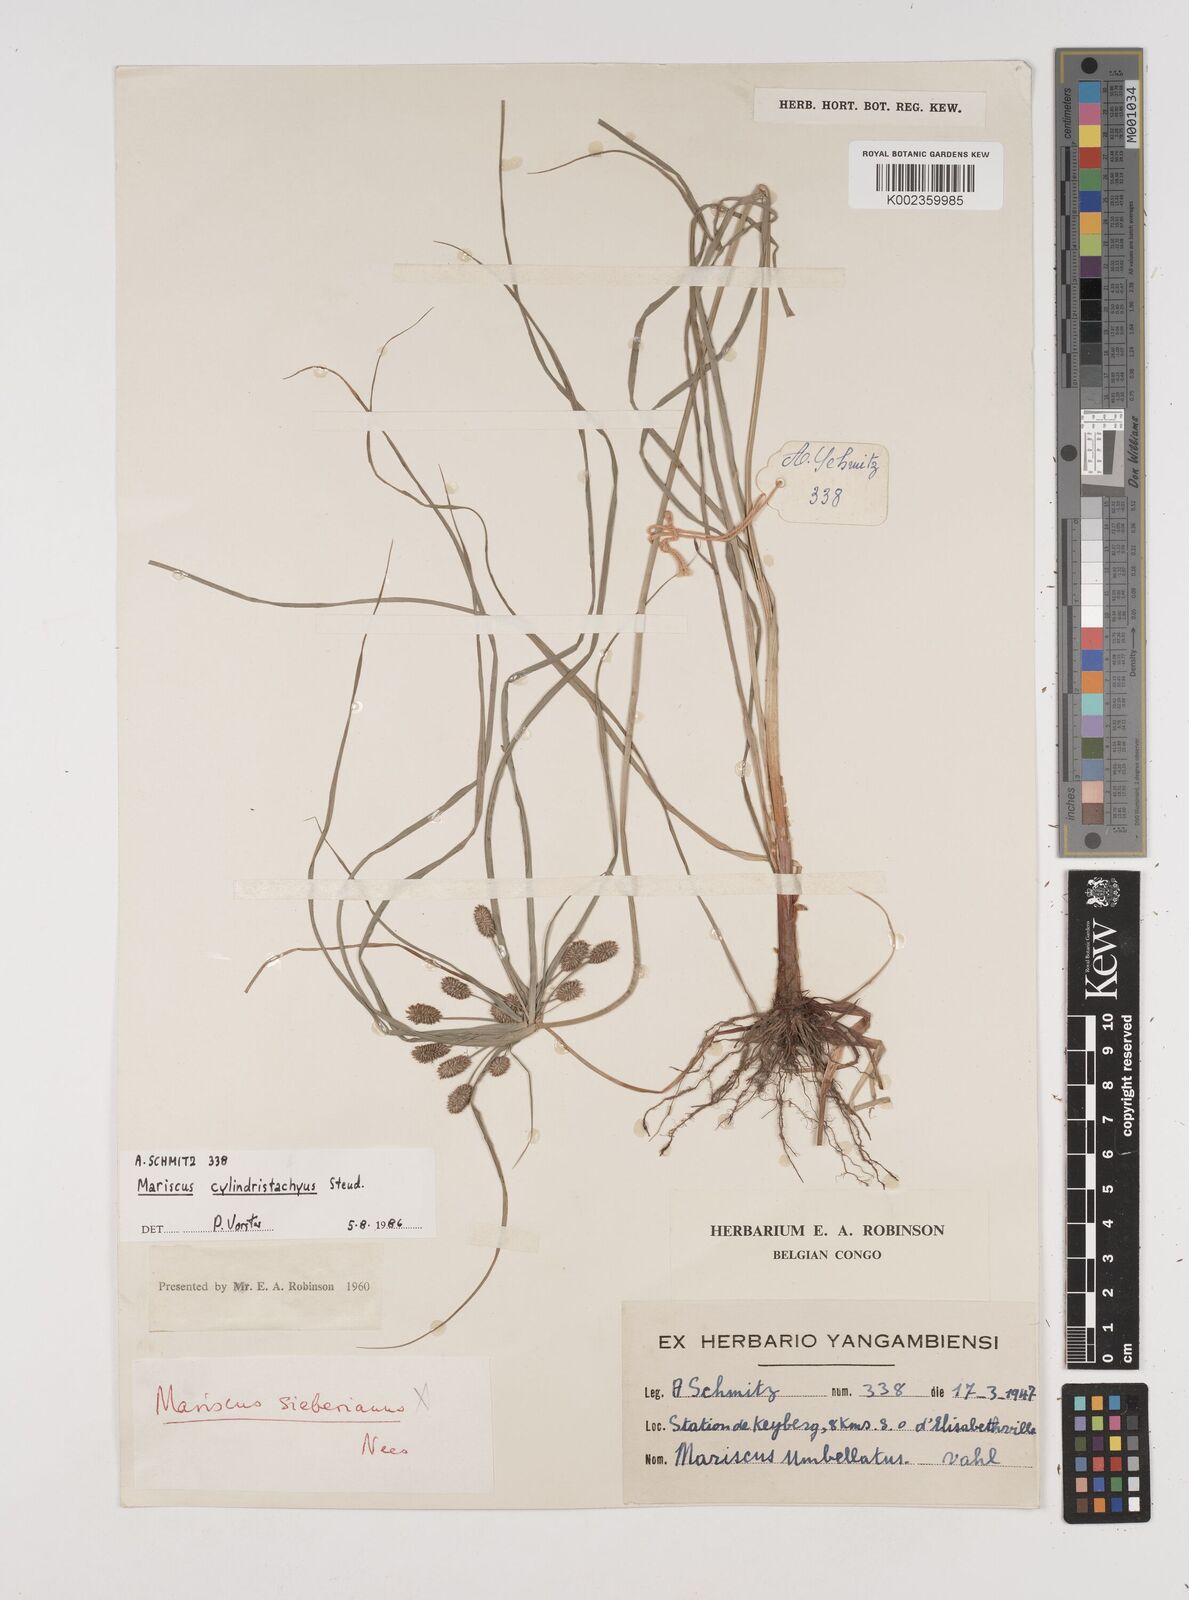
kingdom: Plantae
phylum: Tracheophyta
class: Liliopsida
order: Poales
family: Cyperaceae
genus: Cyperus
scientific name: Cyperus cyperoides
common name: Pacific island flat sedge
